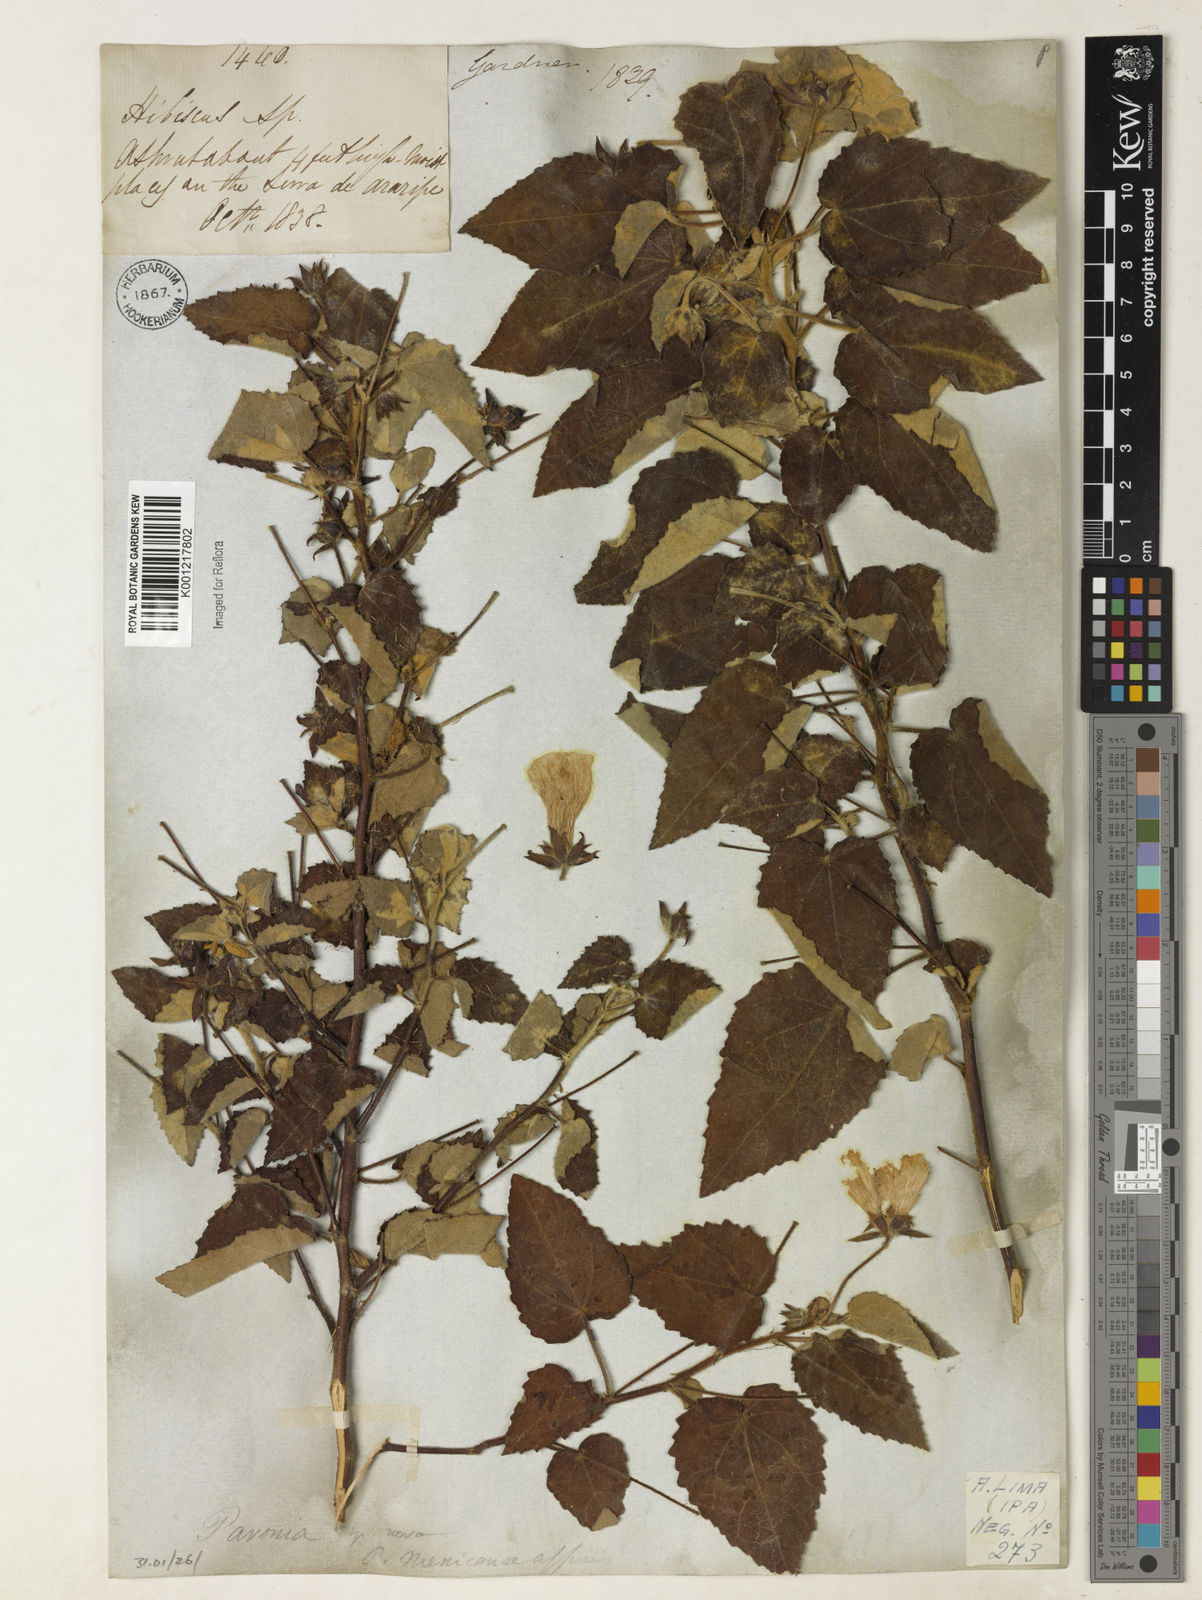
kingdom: Plantae
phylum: Tracheophyta
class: Magnoliopsida
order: Malvales
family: Malvaceae
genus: Pavonia
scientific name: Pavonia
